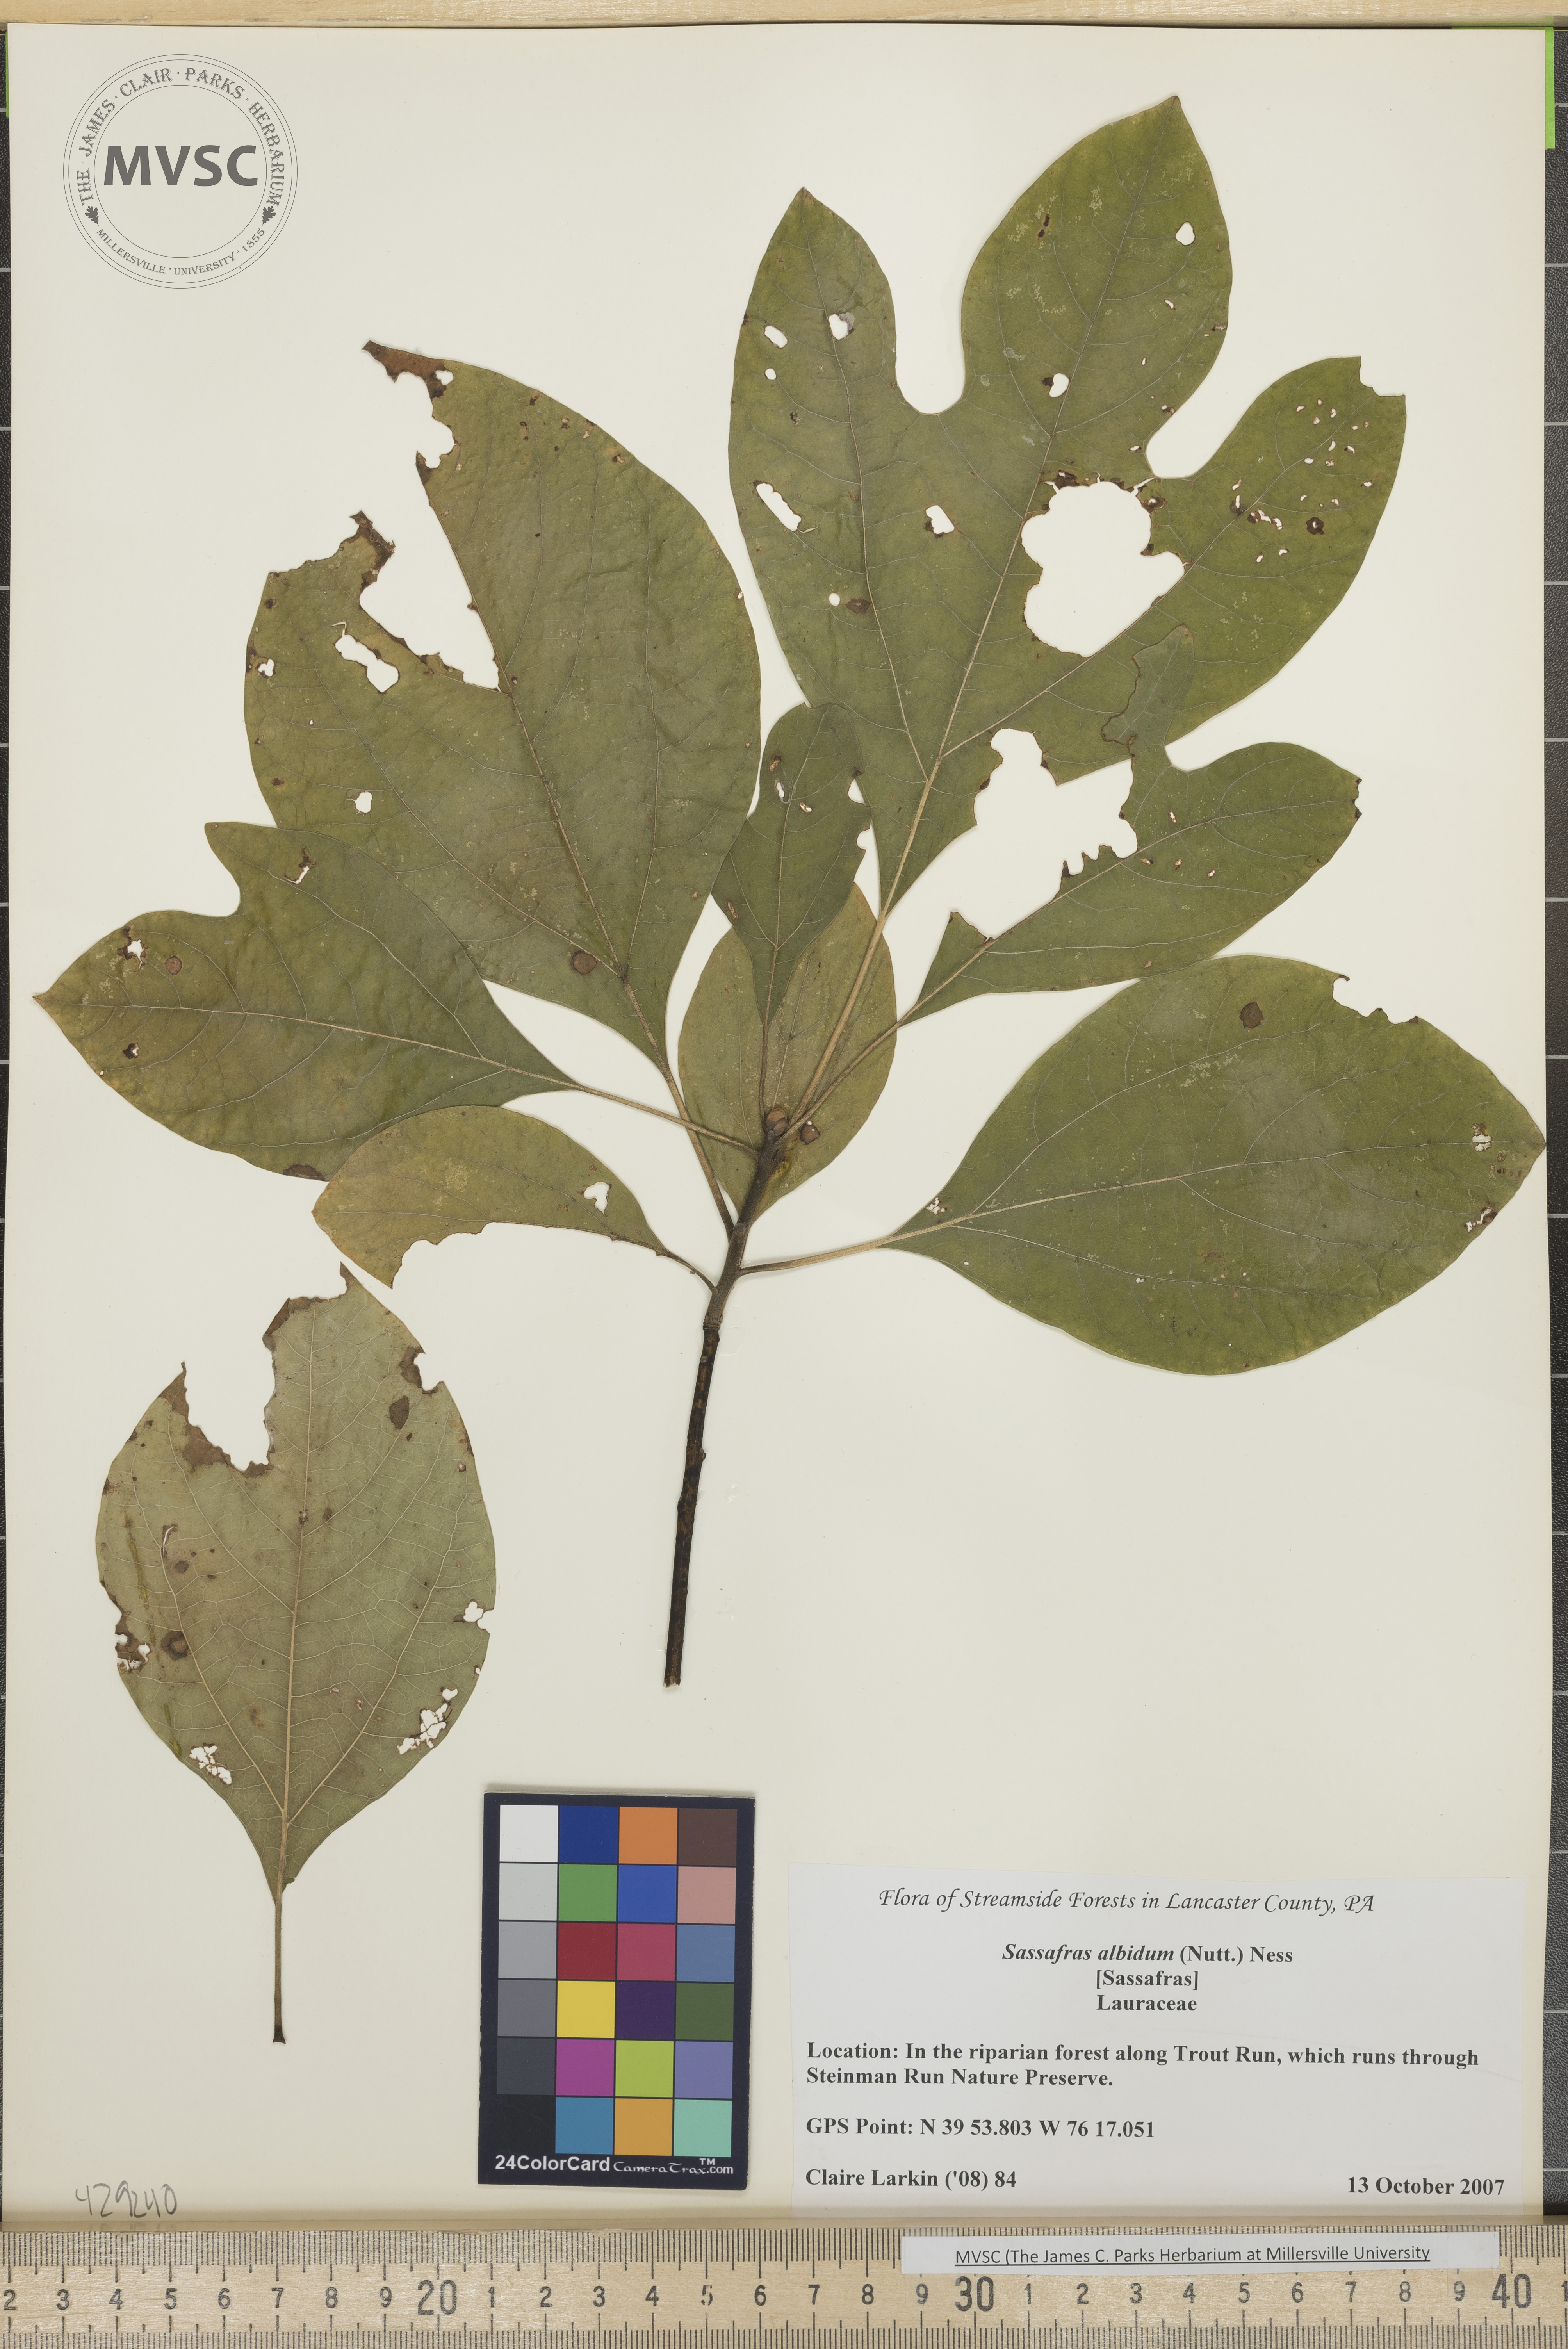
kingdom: Plantae
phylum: Tracheophyta
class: Magnoliopsida
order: Laurales
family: Lauraceae
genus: Sassafras
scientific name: Sassafras albidum
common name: Sassafras
